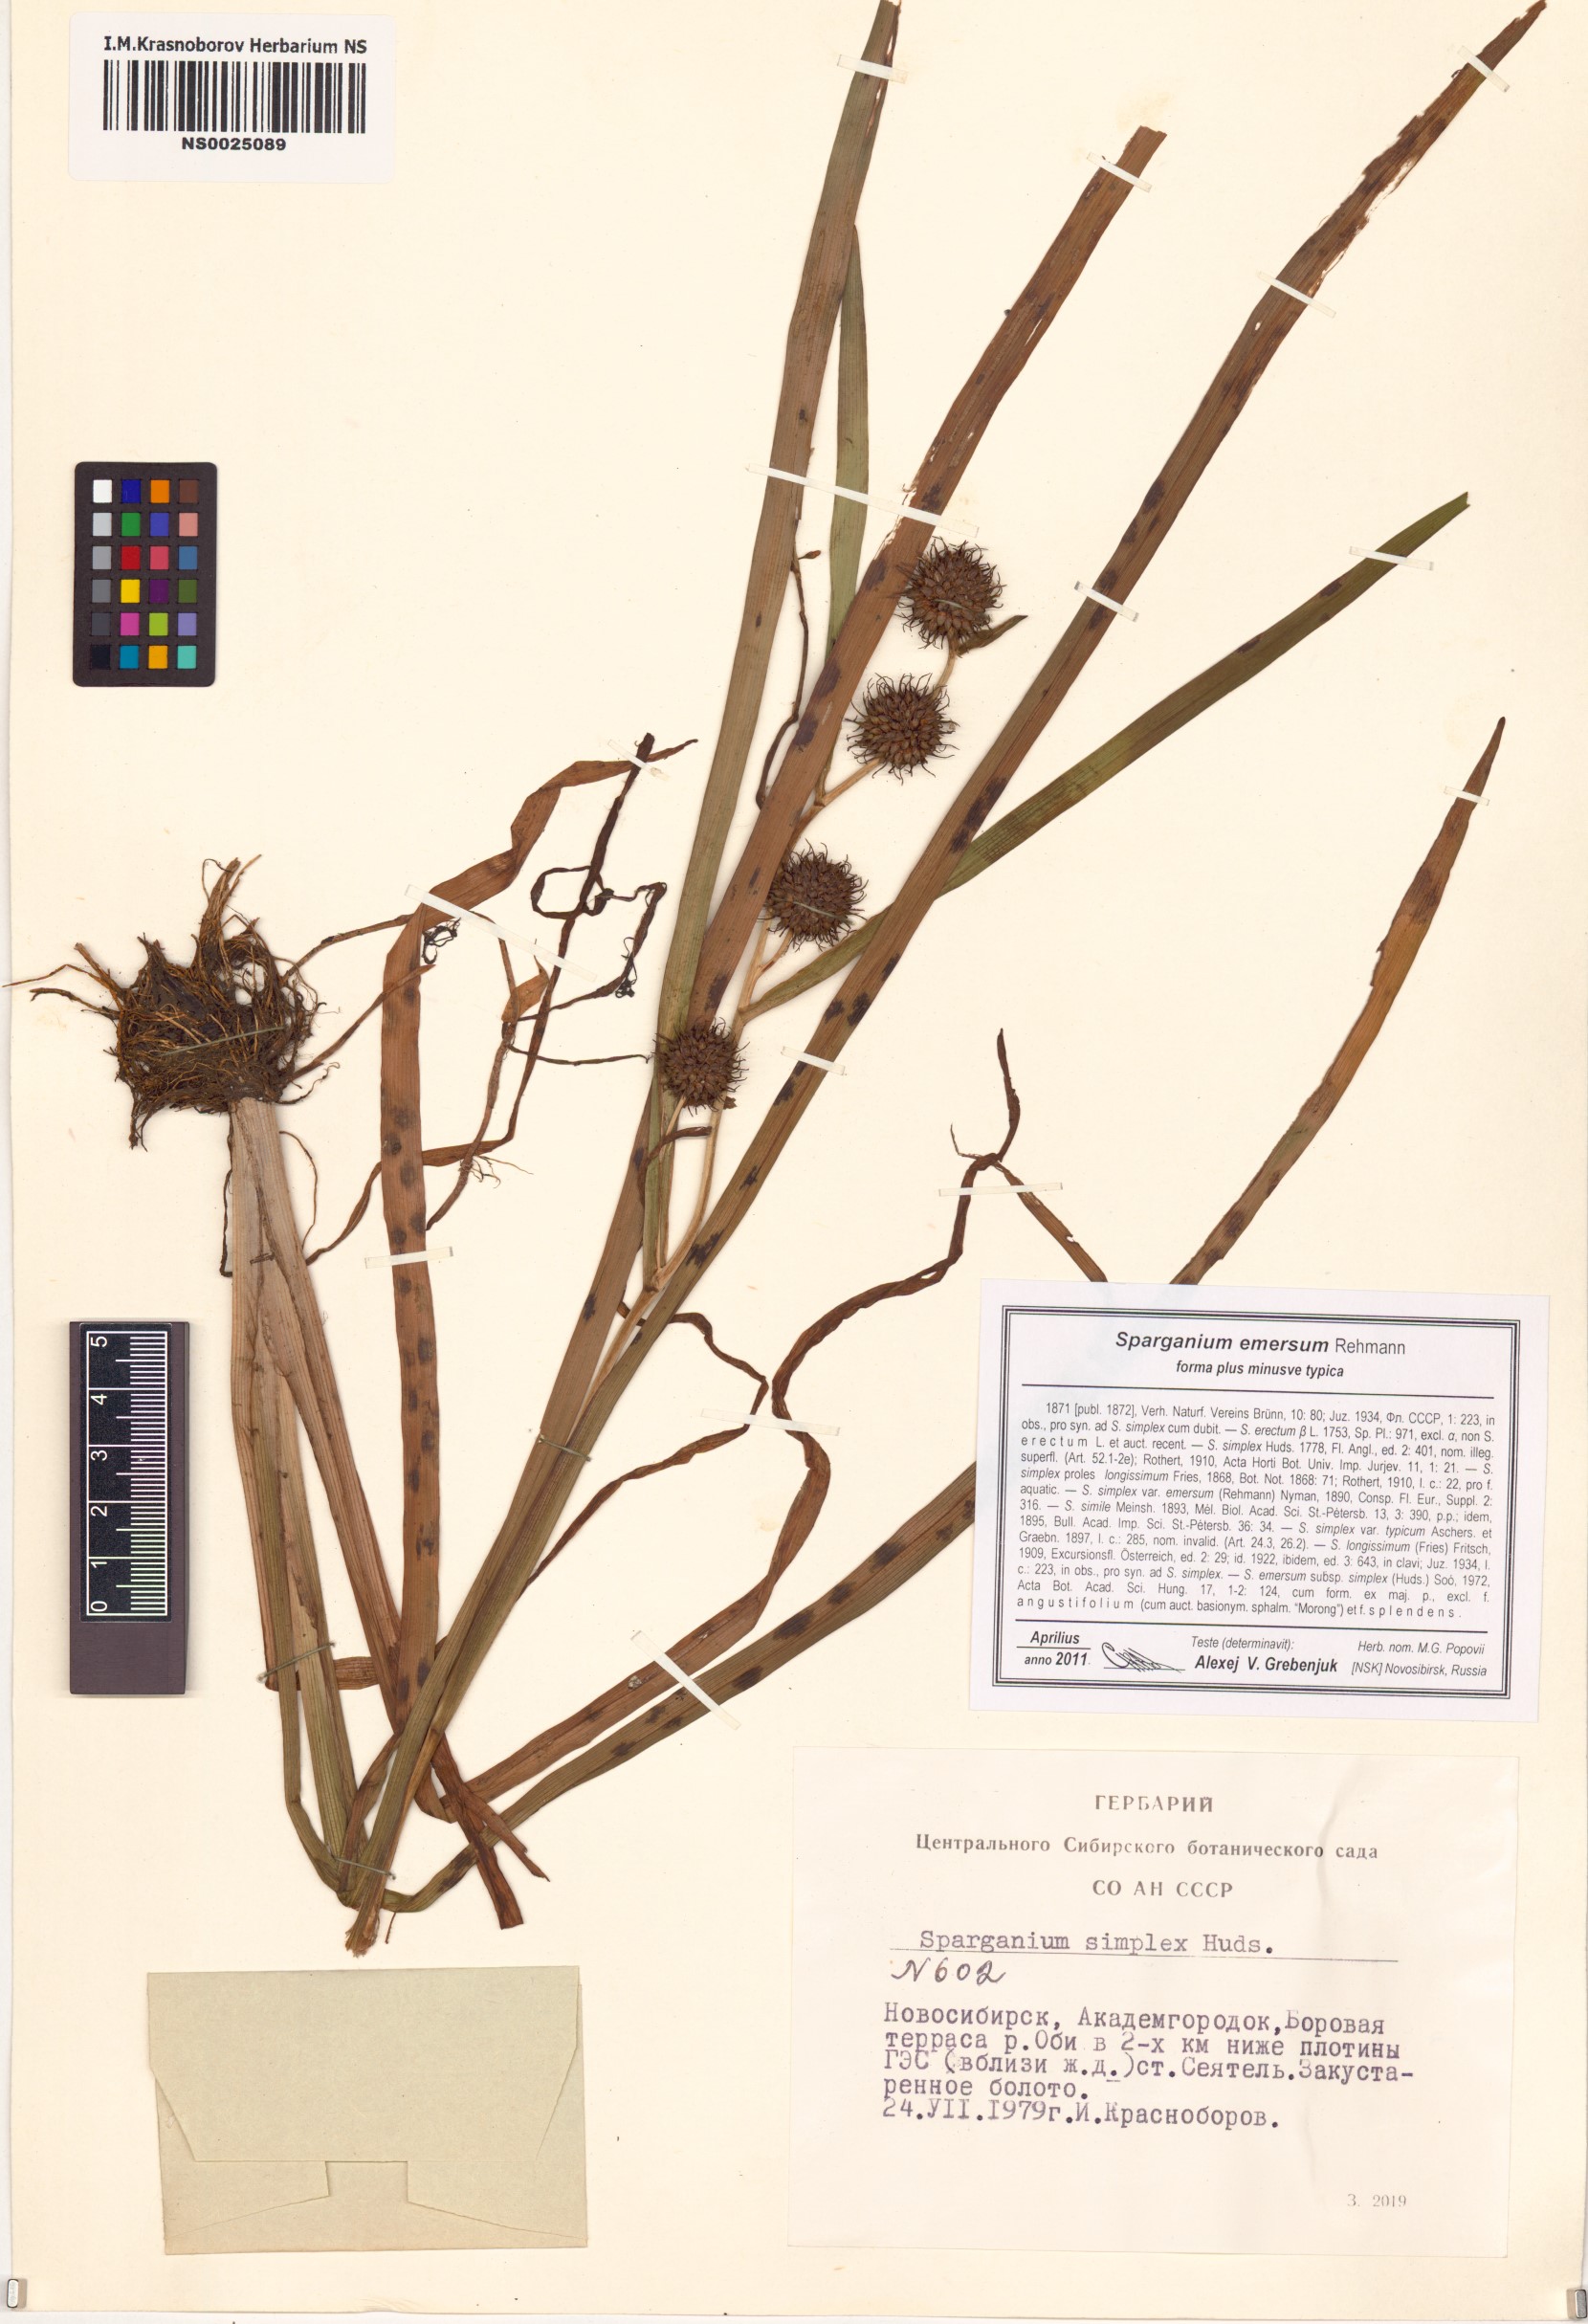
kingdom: Plantae
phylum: Tracheophyta
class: Liliopsida
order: Poales
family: Typhaceae
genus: Sparganium
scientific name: Sparganium emersum
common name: Unbranched bur-reed
